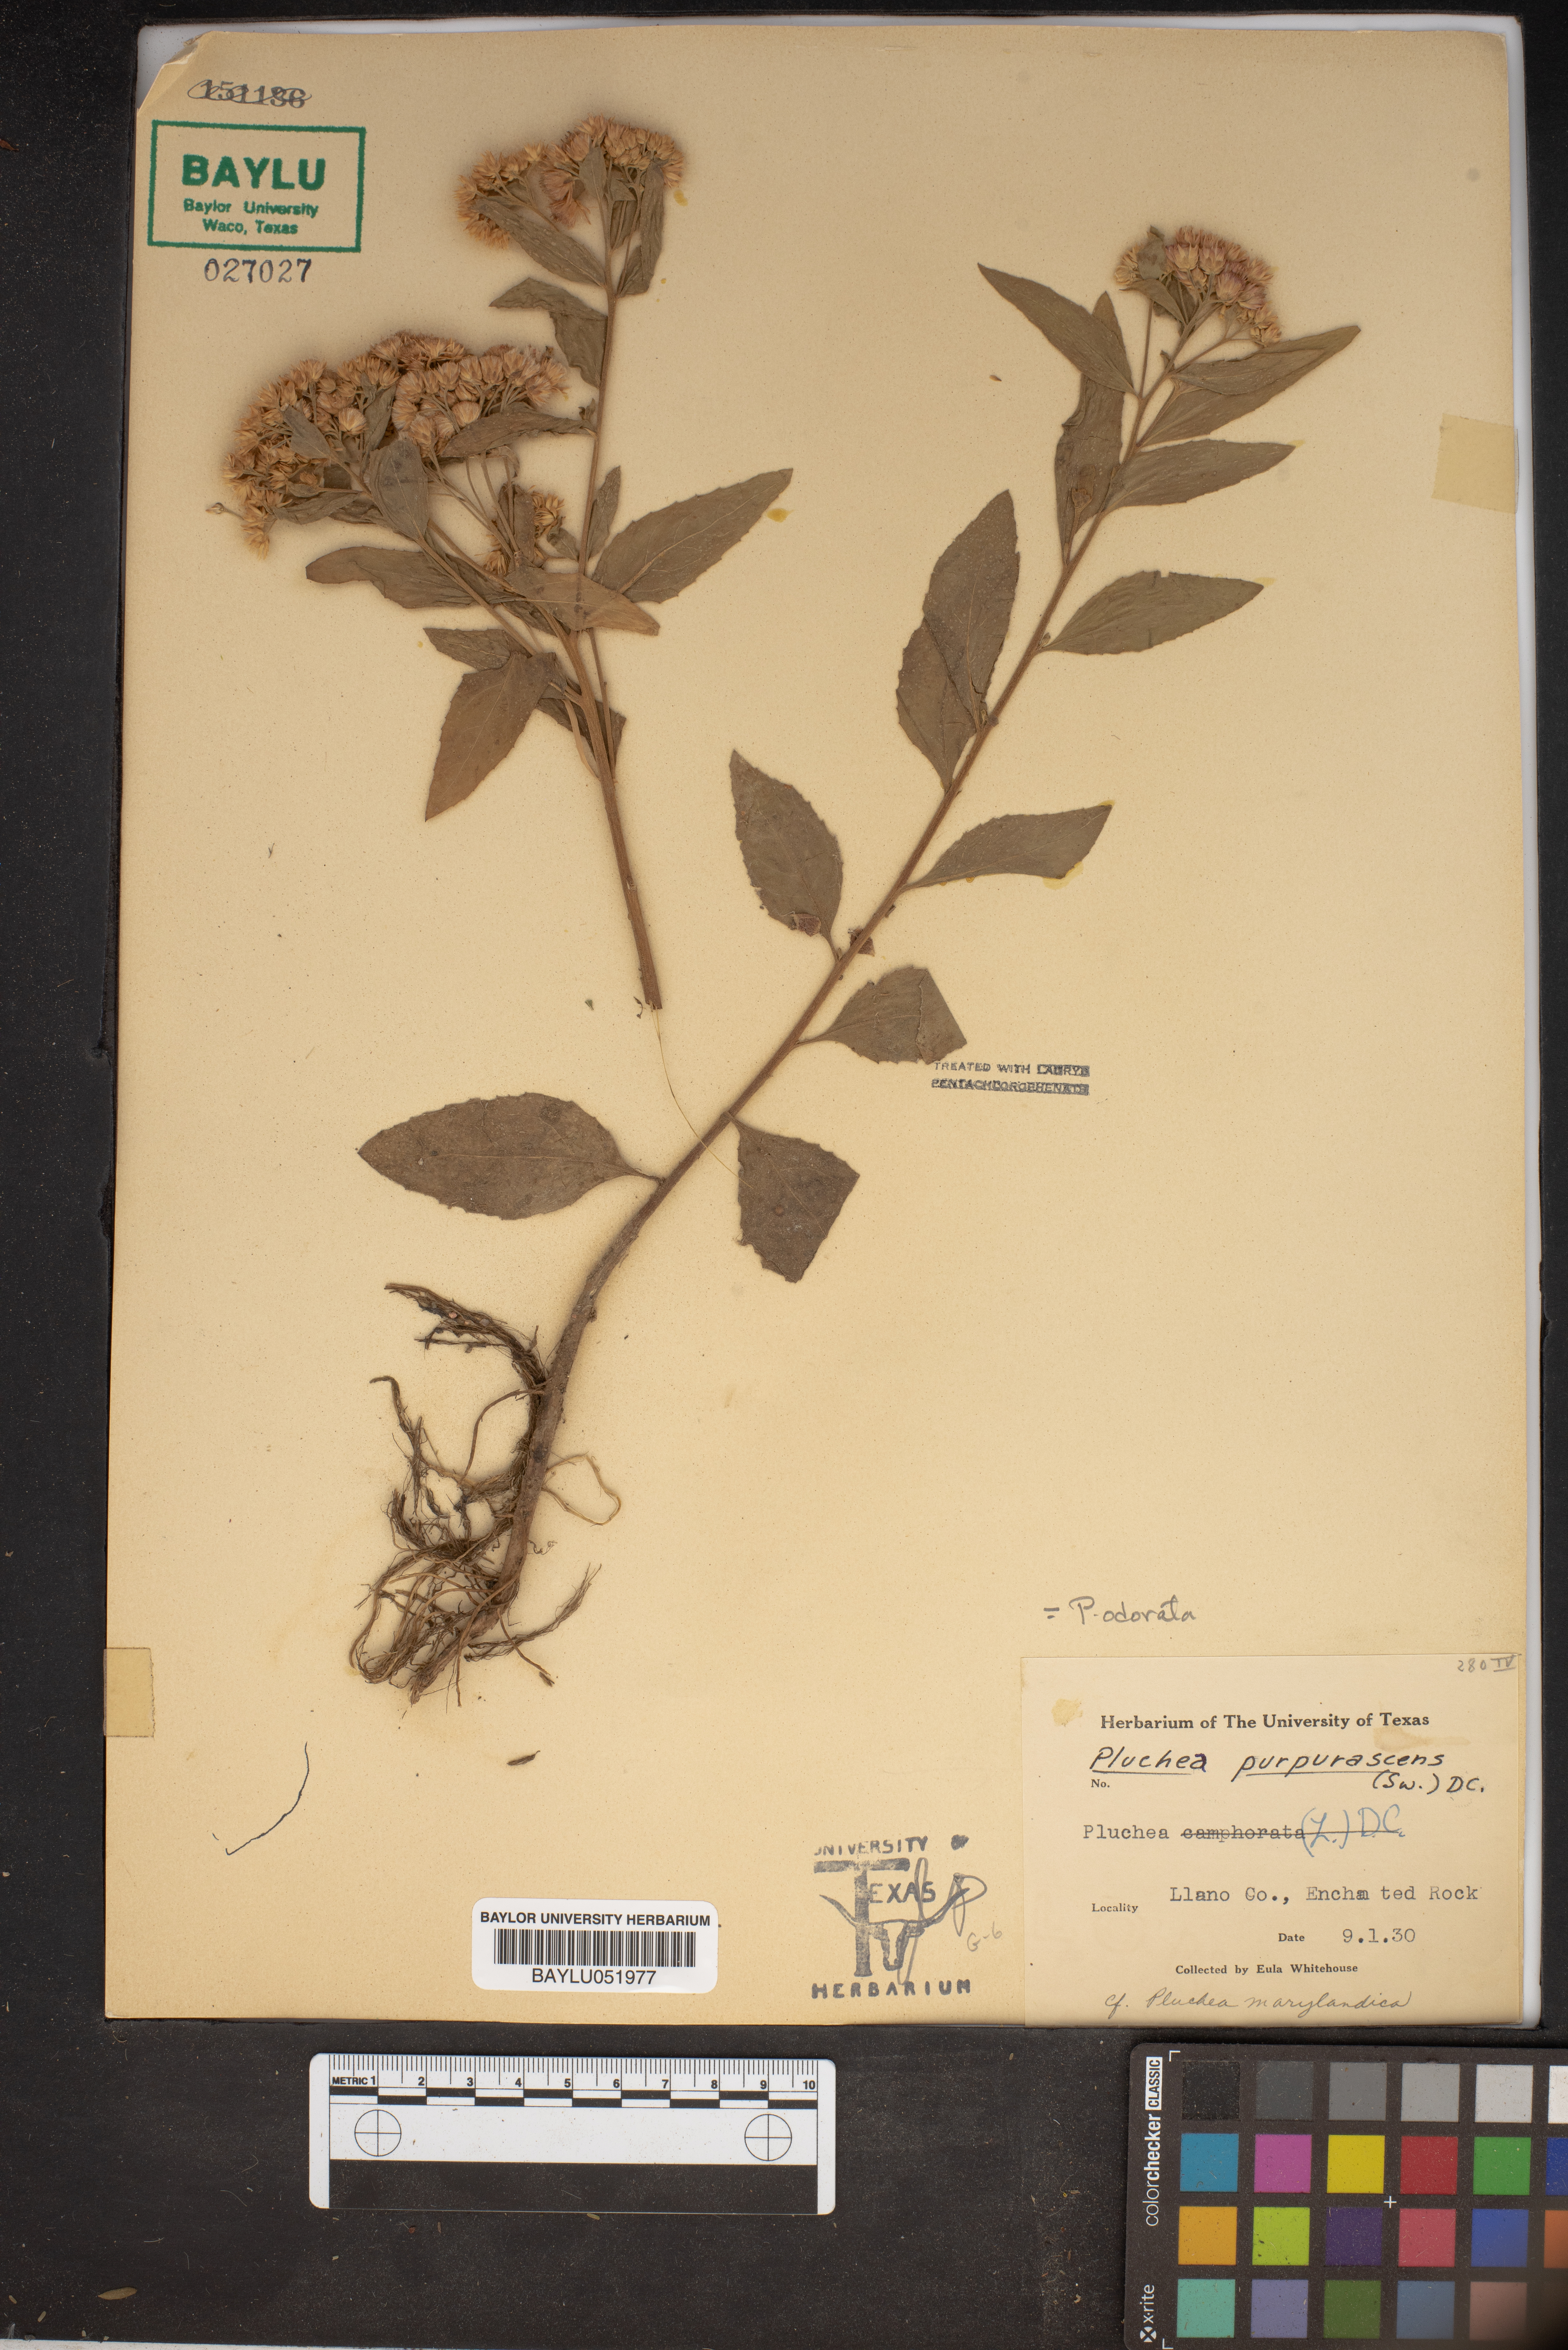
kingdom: Plantae
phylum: Tracheophyta
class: Magnoliopsida
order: Asterales
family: Asteraceae
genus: Pluchea
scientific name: Pluchea odorata
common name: Saltmarsh fleabane
